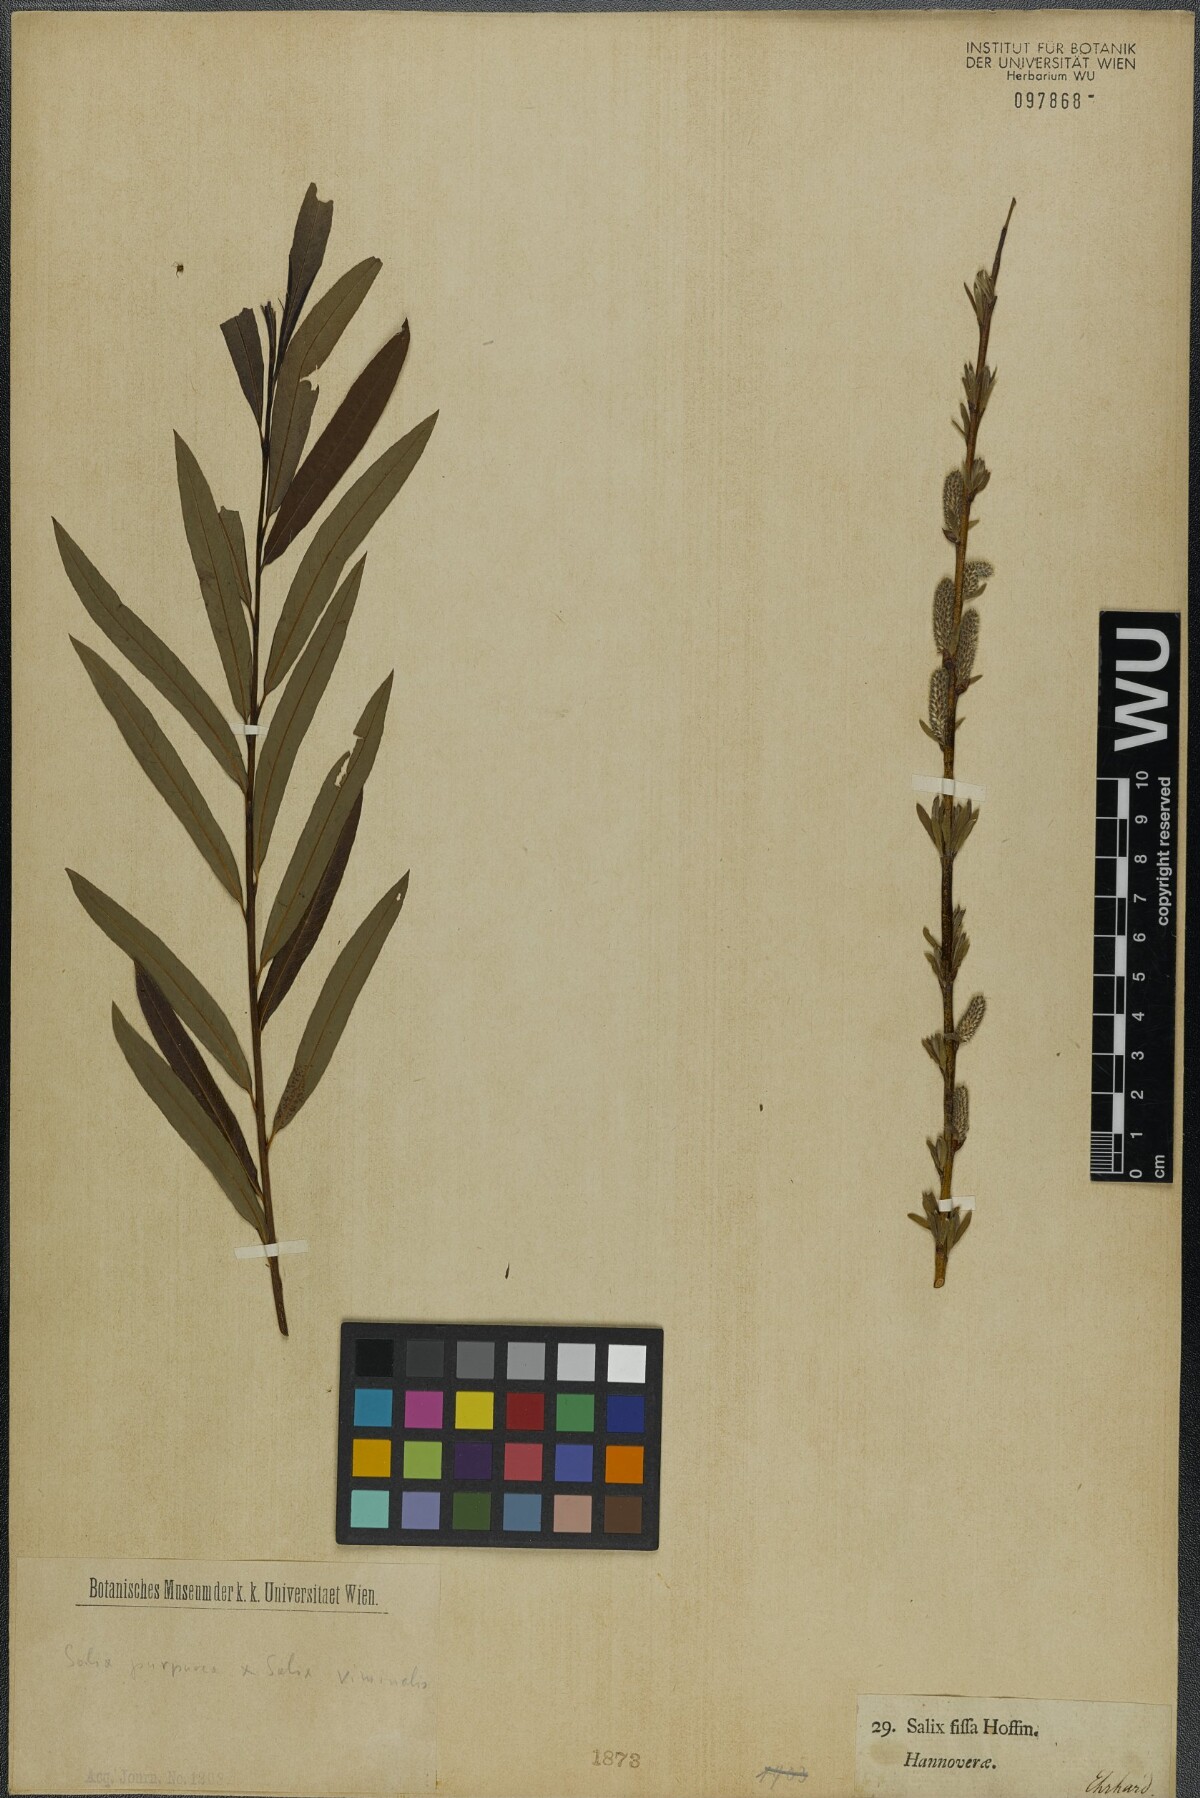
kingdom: Plantae
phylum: Tracheophyta
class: Magnoliopsida
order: Malpighiales
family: Salicaceae
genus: Salix
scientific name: Salix rubra
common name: Green-leaf willow
